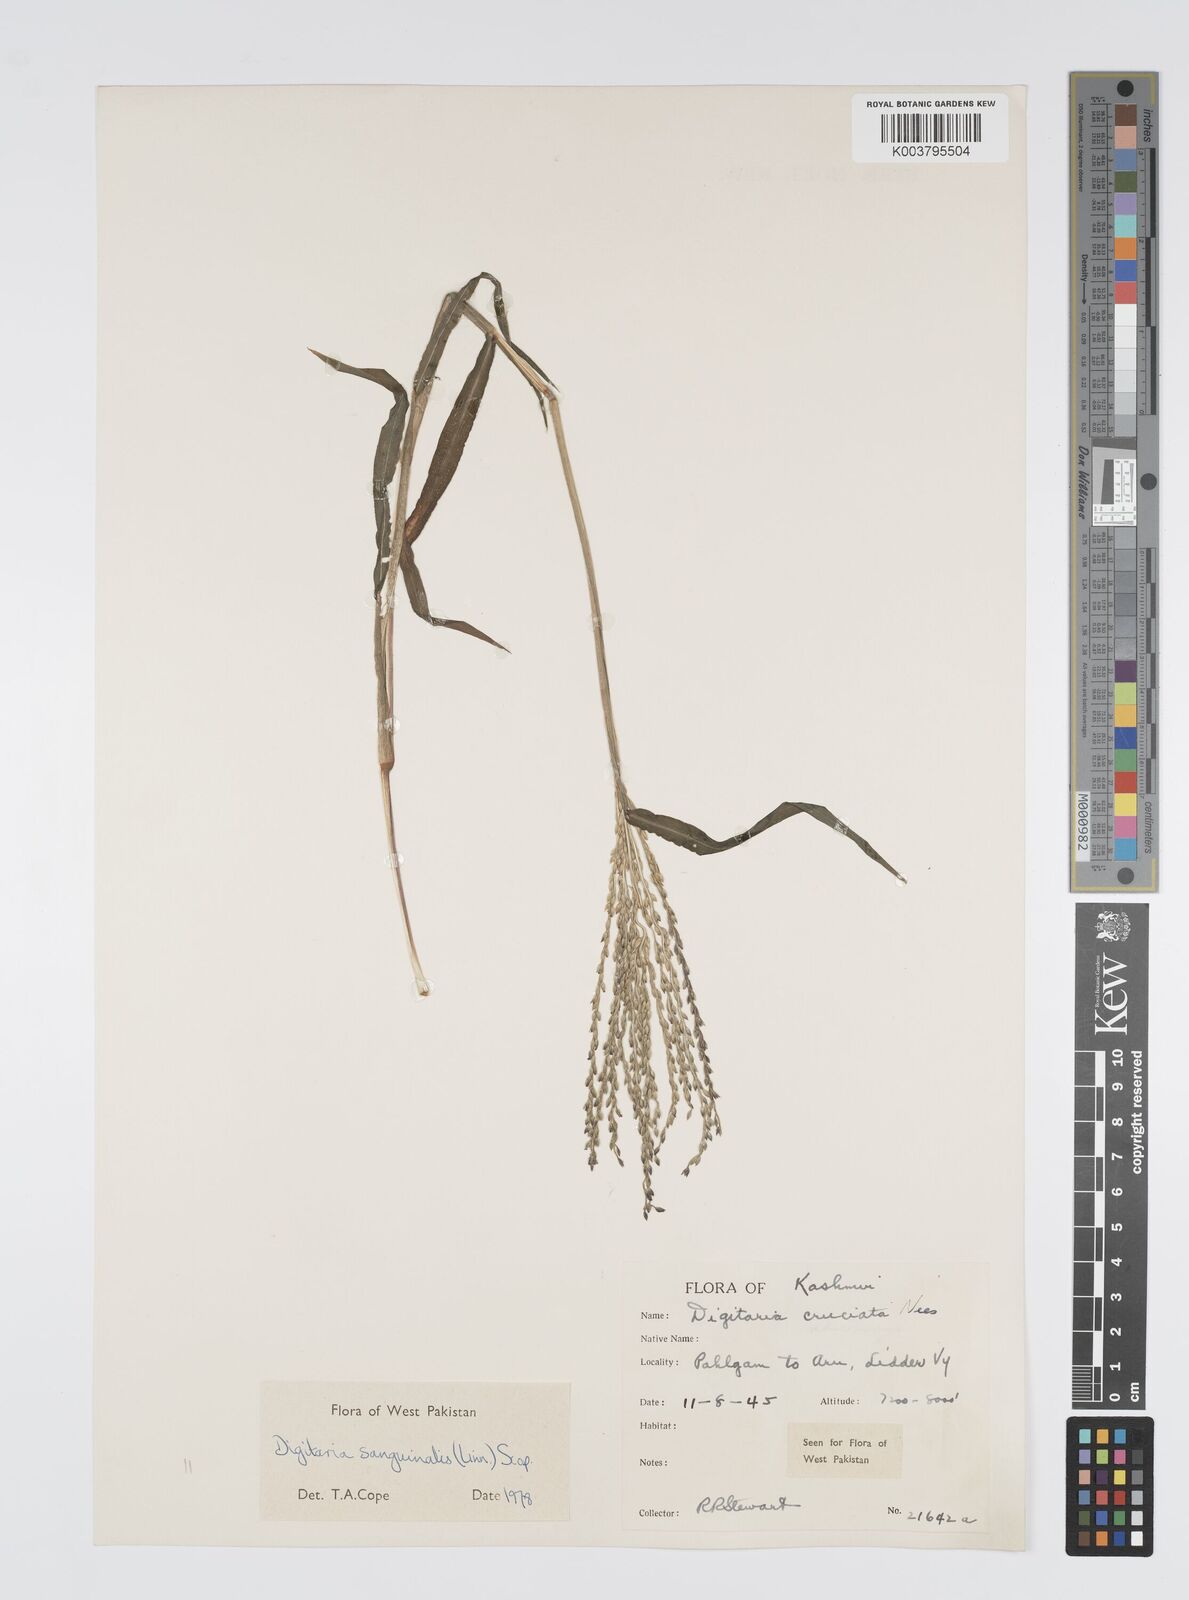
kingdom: Plantae
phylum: Tracheophyta
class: Liliopsida
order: Poales
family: Poaceae
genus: Digitaria
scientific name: Digitaria sanguinalis
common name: Hairy crabgrass
